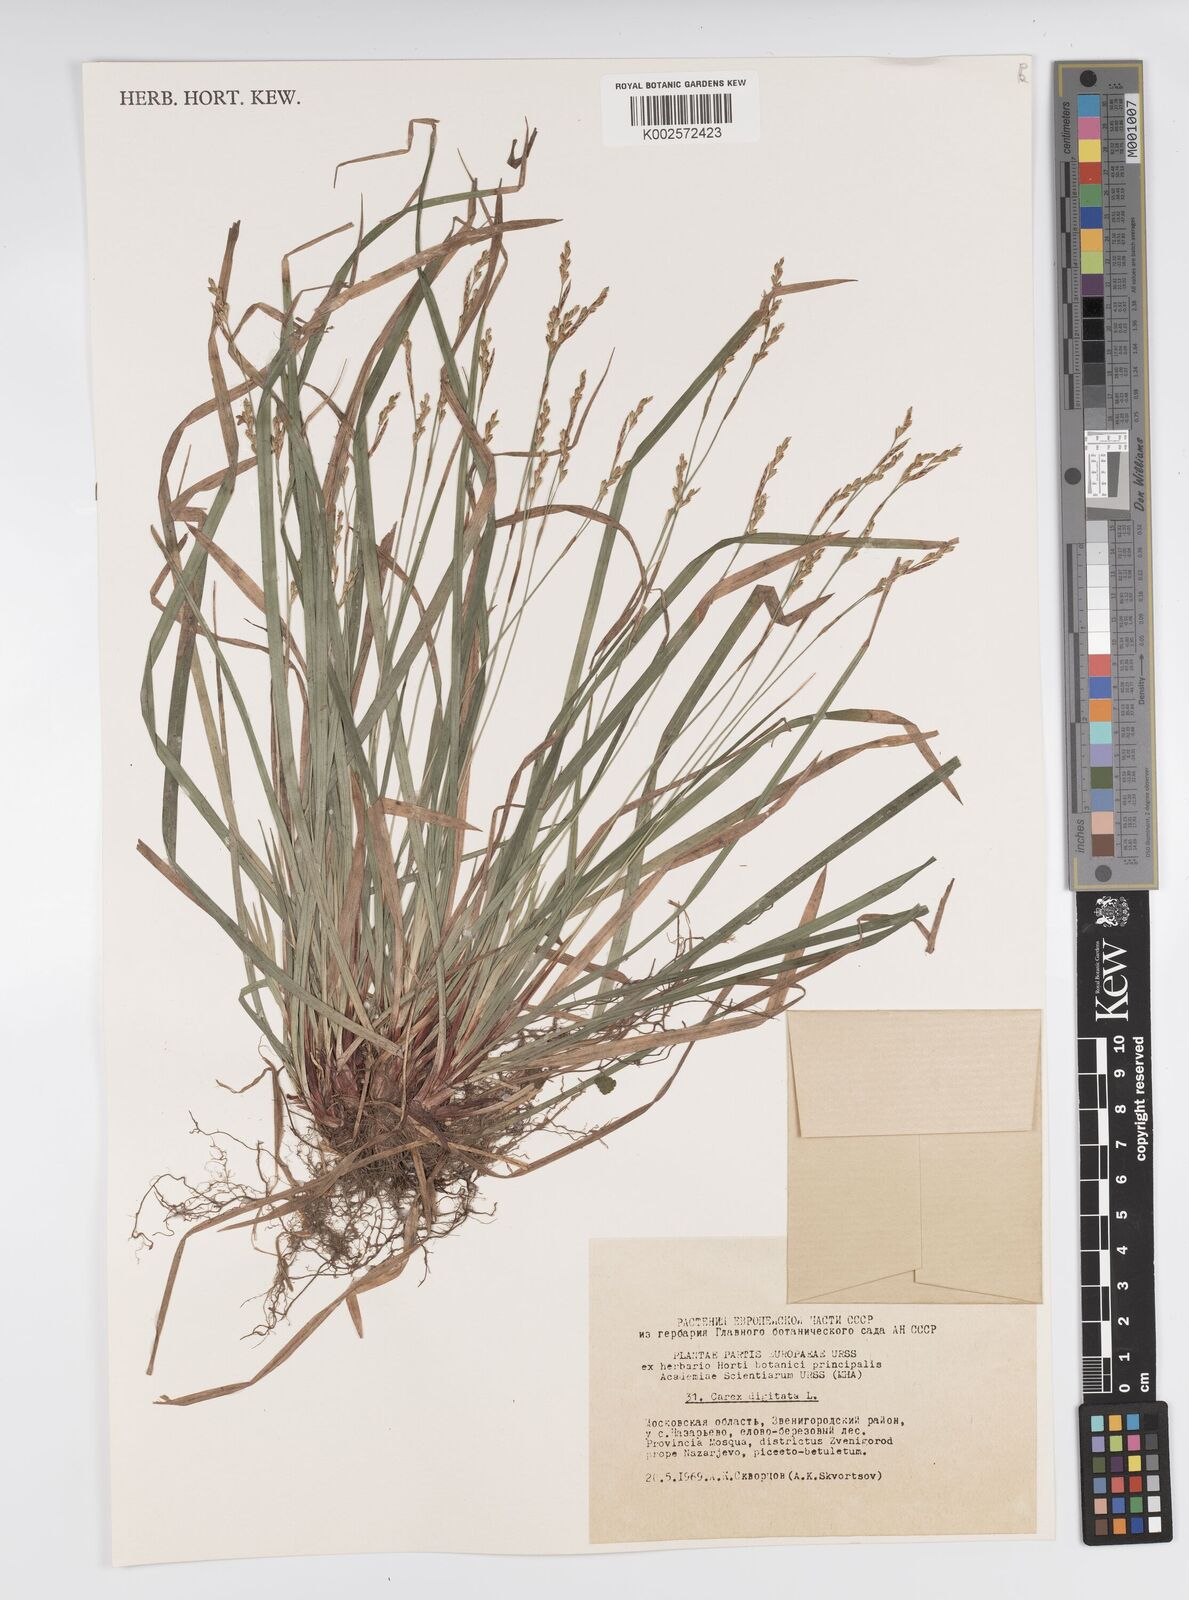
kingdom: Plantae
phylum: Tracheophyta
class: Liliopsida
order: Poales
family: Cyperaceae
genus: Carex
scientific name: Carex digitata
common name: Fingered sedge
